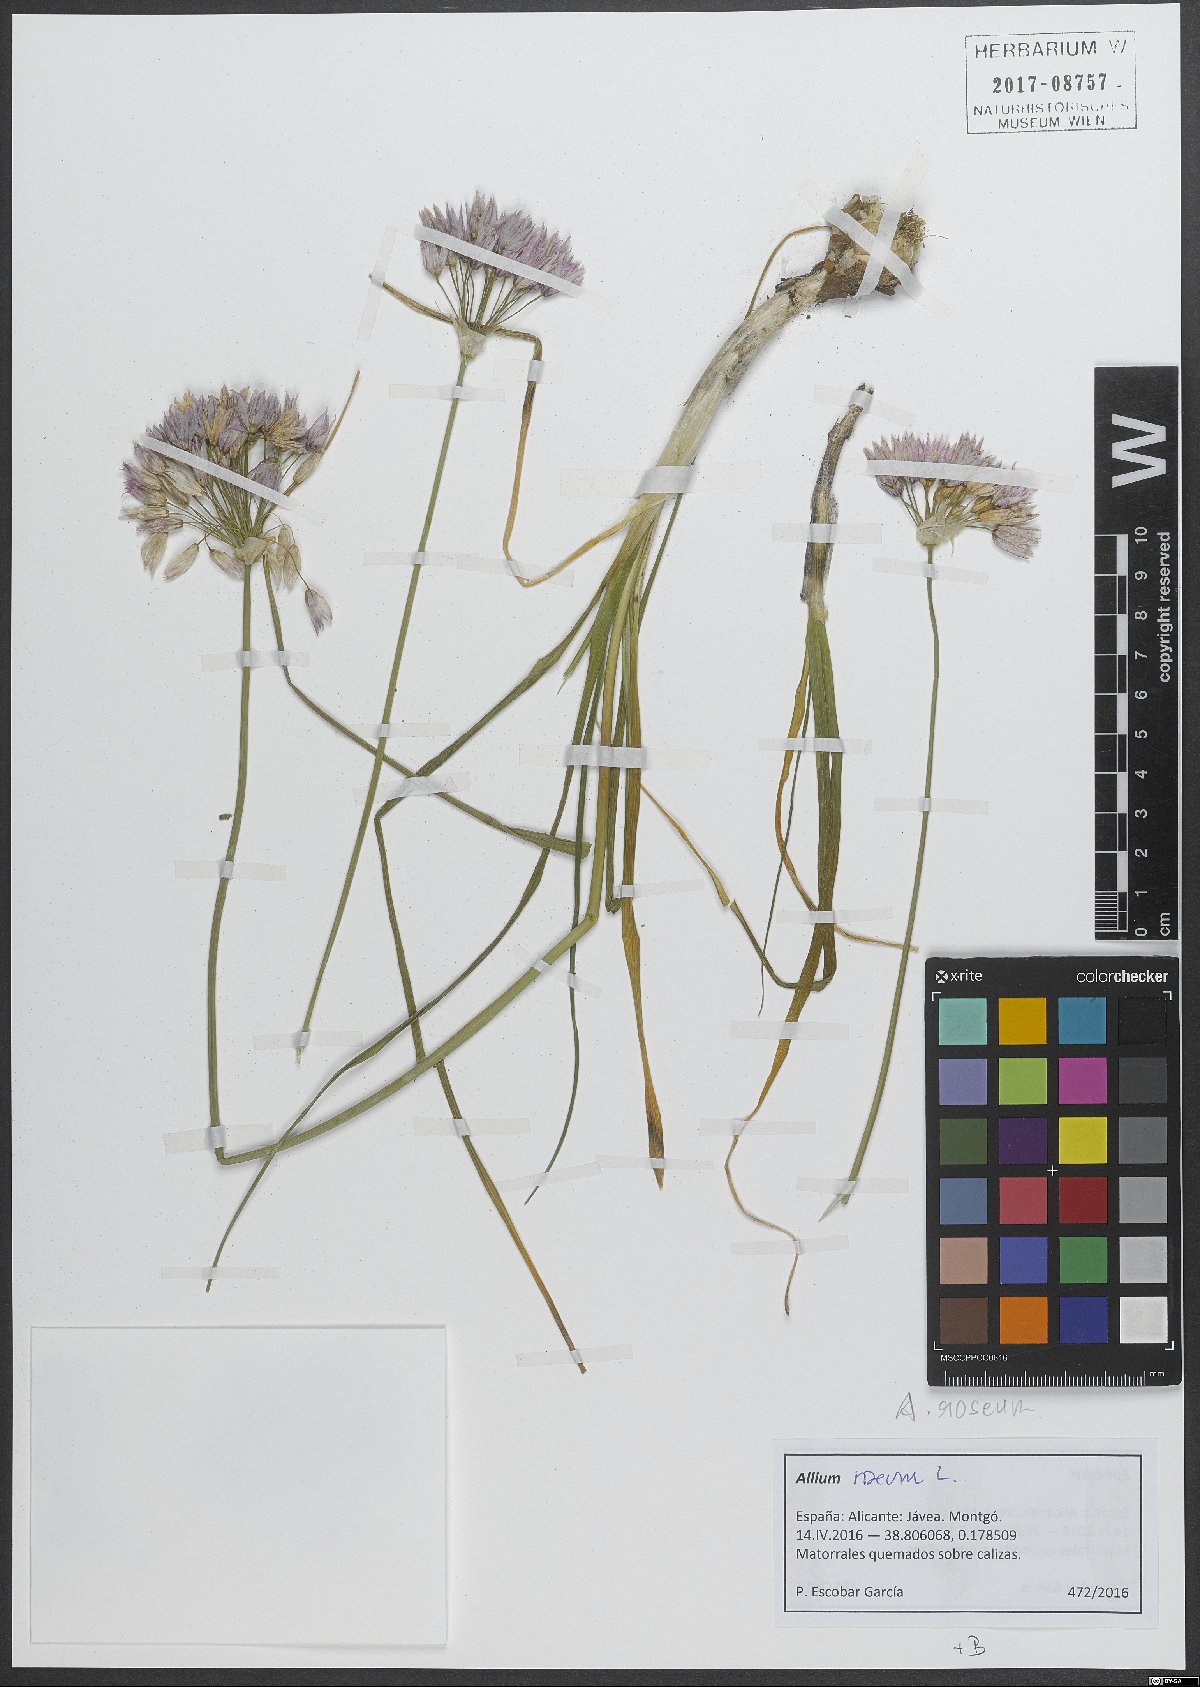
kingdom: Plantae
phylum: Tracheophyta
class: Liliopsida
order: Asparagales
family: Amaryllidaceae
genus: Allium
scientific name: Allium roseum
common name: Rosy garlic
